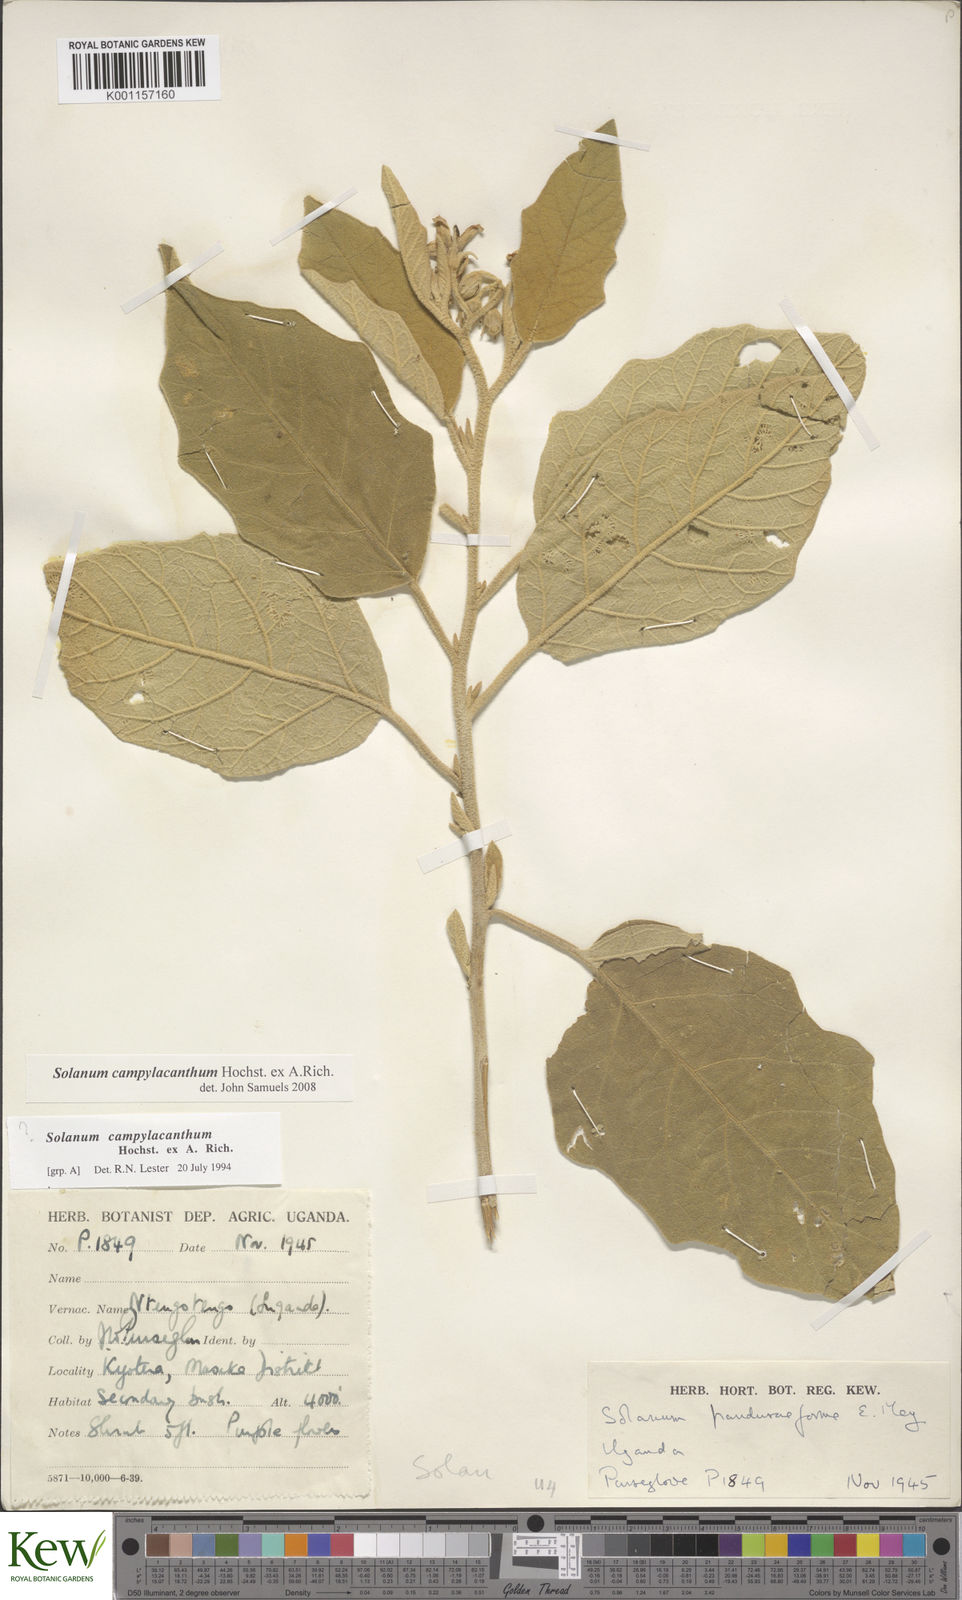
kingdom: Plantae
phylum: Tracheophyta
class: Magnoliopsida
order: Solanales
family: Solanaceae
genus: Solanum
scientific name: Solanum campylacanthum
